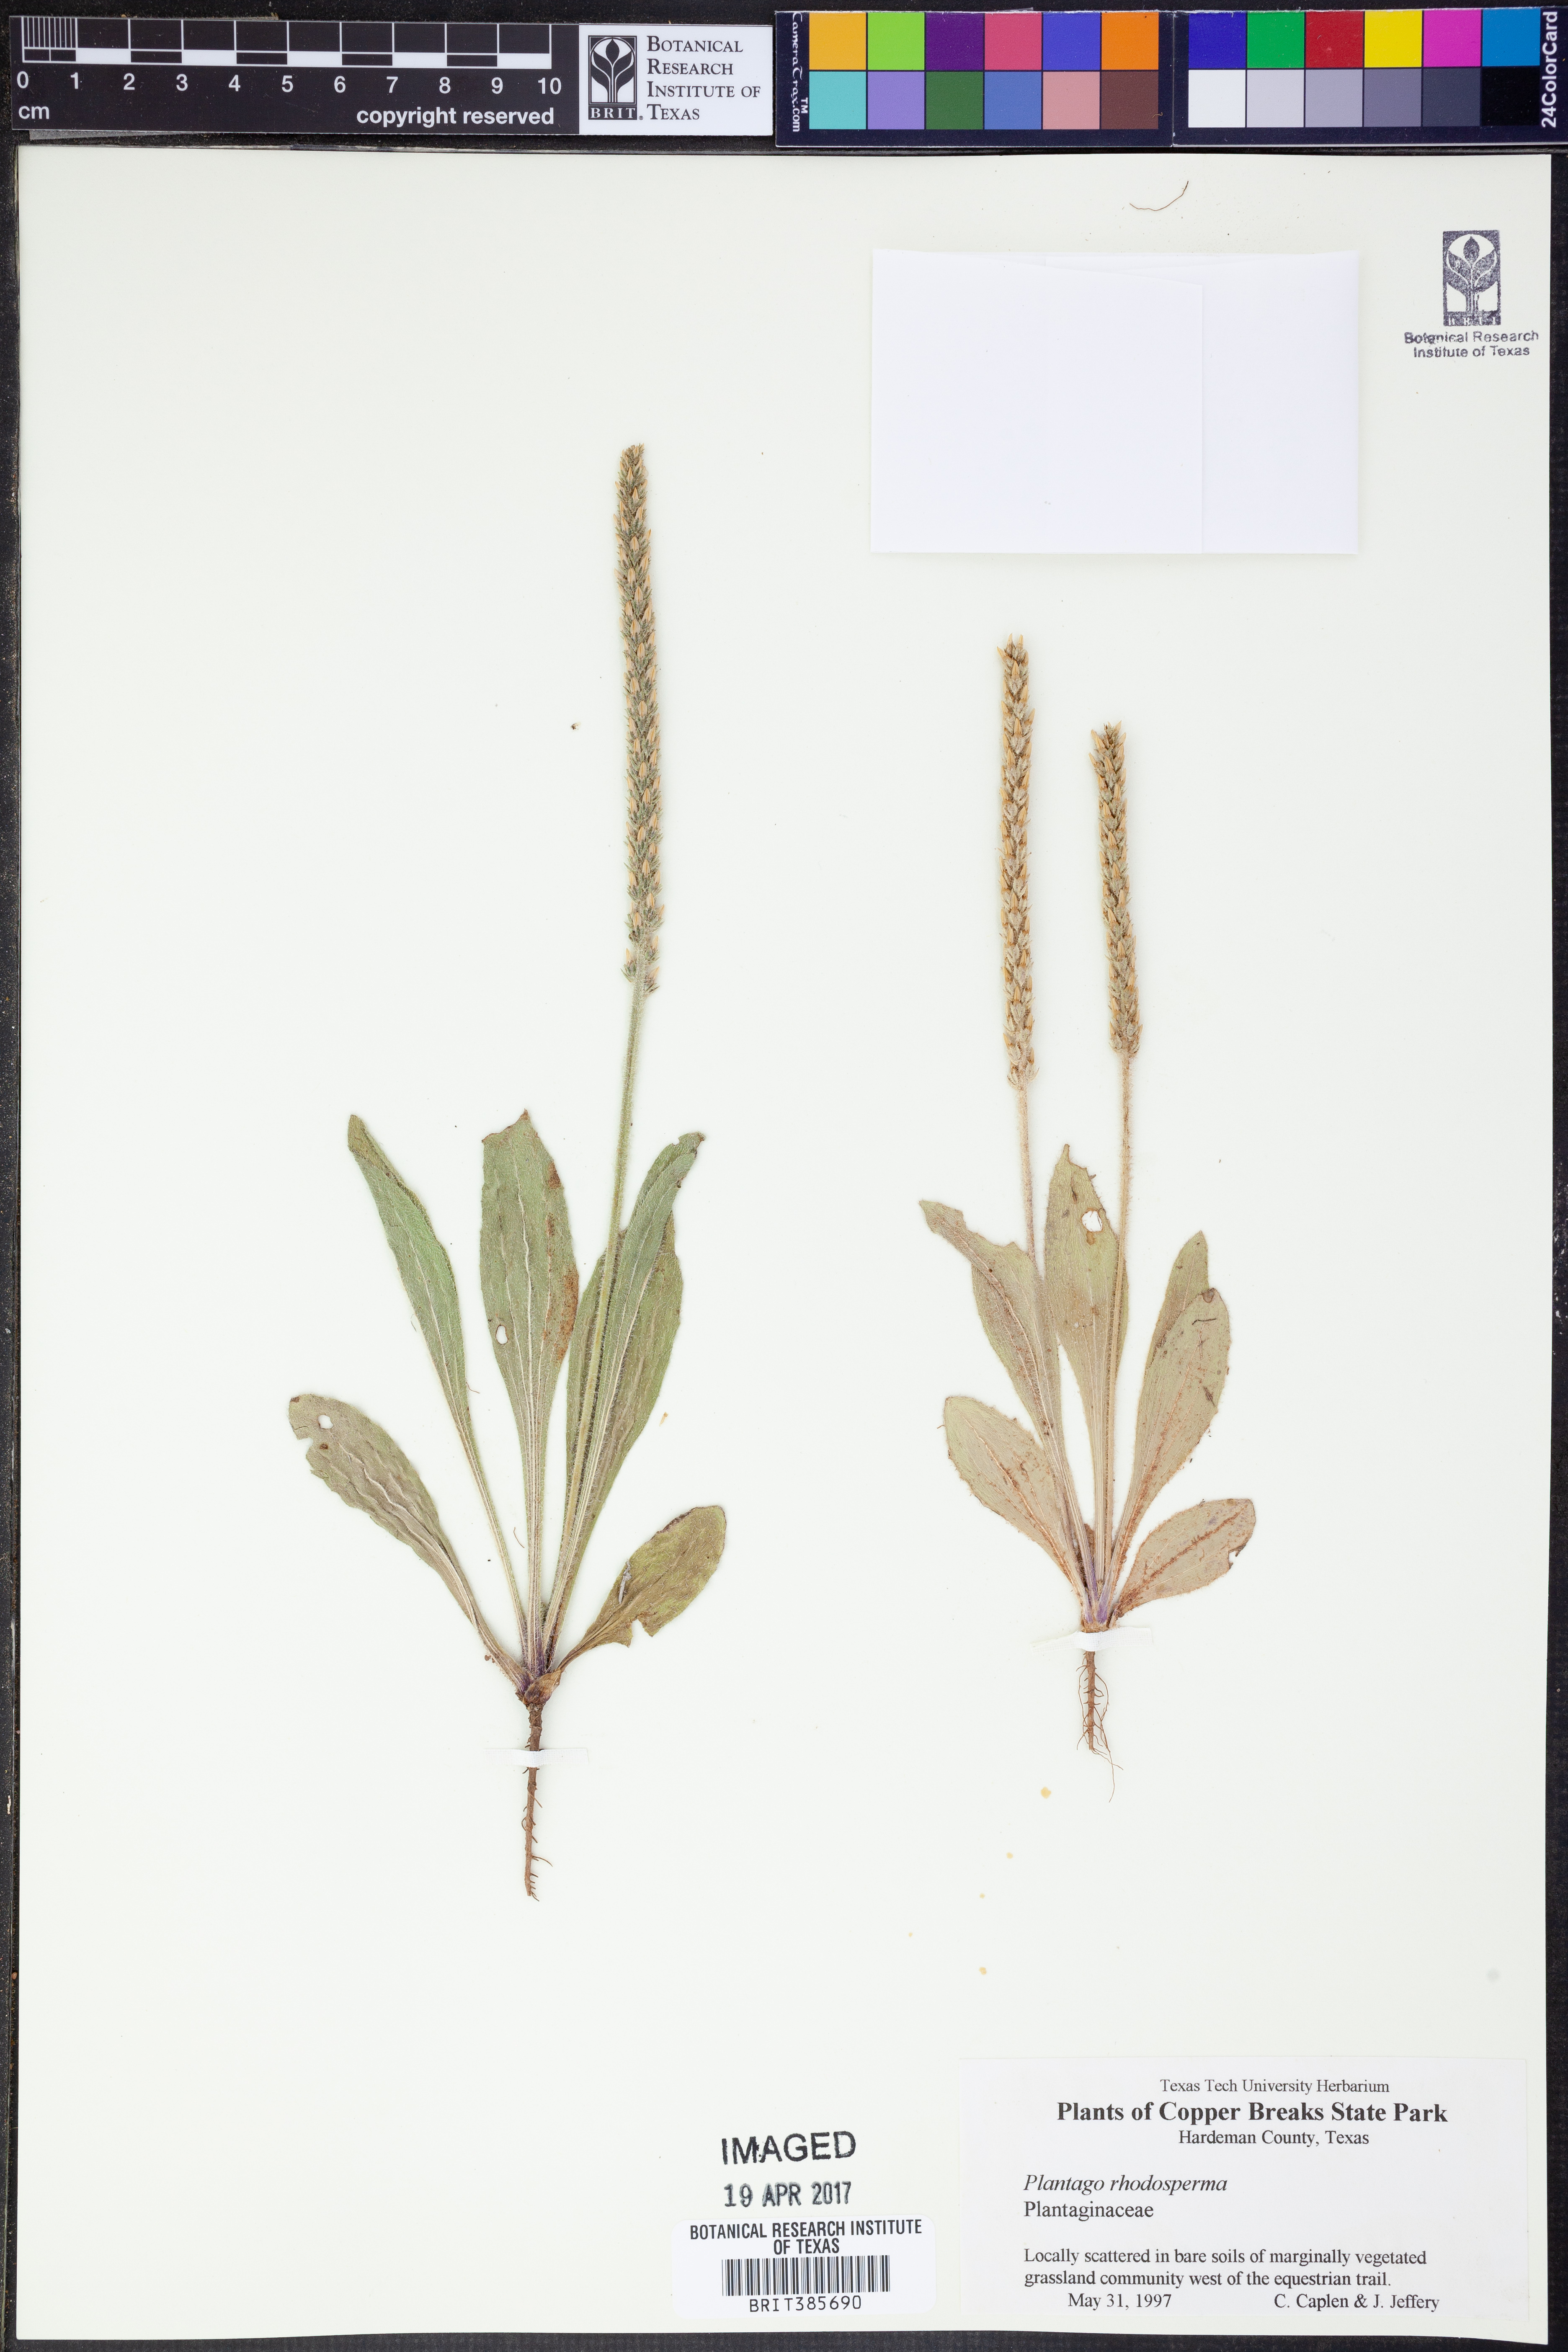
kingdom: Plantae
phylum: Tracheophyta
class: Magnoliopsida
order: Lamiales
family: Plantaginaceae
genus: Plantago
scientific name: Plantago rhodosperma
